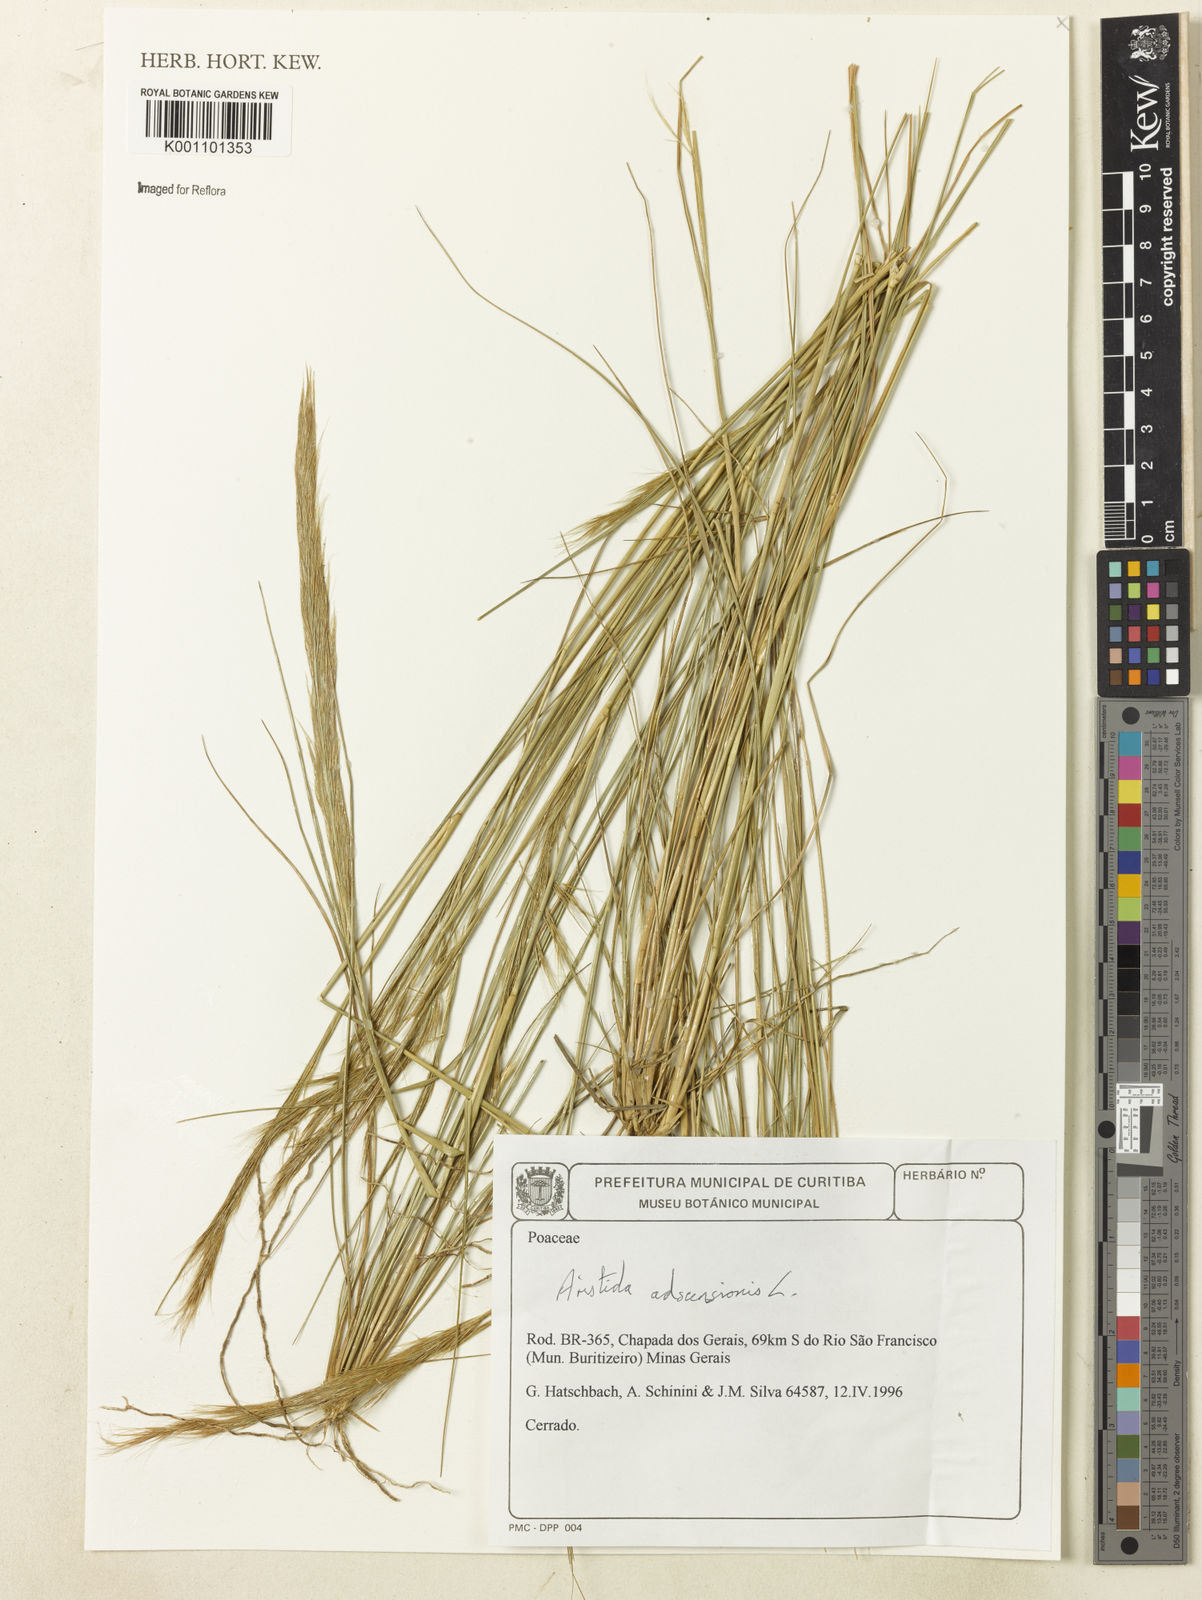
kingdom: Plantae
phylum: Tracheophyta
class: Liliopsida
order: Poales
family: Poaceae
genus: Aristida
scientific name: Aristida adscensionis
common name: Sixweeks threeawn
